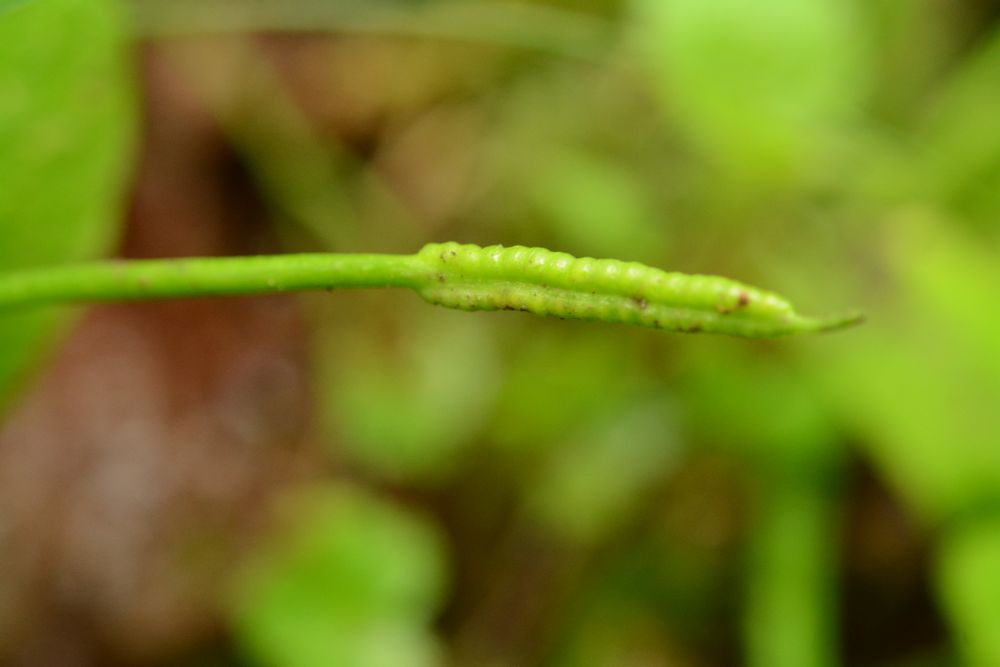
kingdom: Plantae
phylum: Tracheophyta
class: Polypodiopsida
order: Ophioglossales
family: Ophioglossaceae
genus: Ophioglossum
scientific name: Ophioglossum vulgatum
